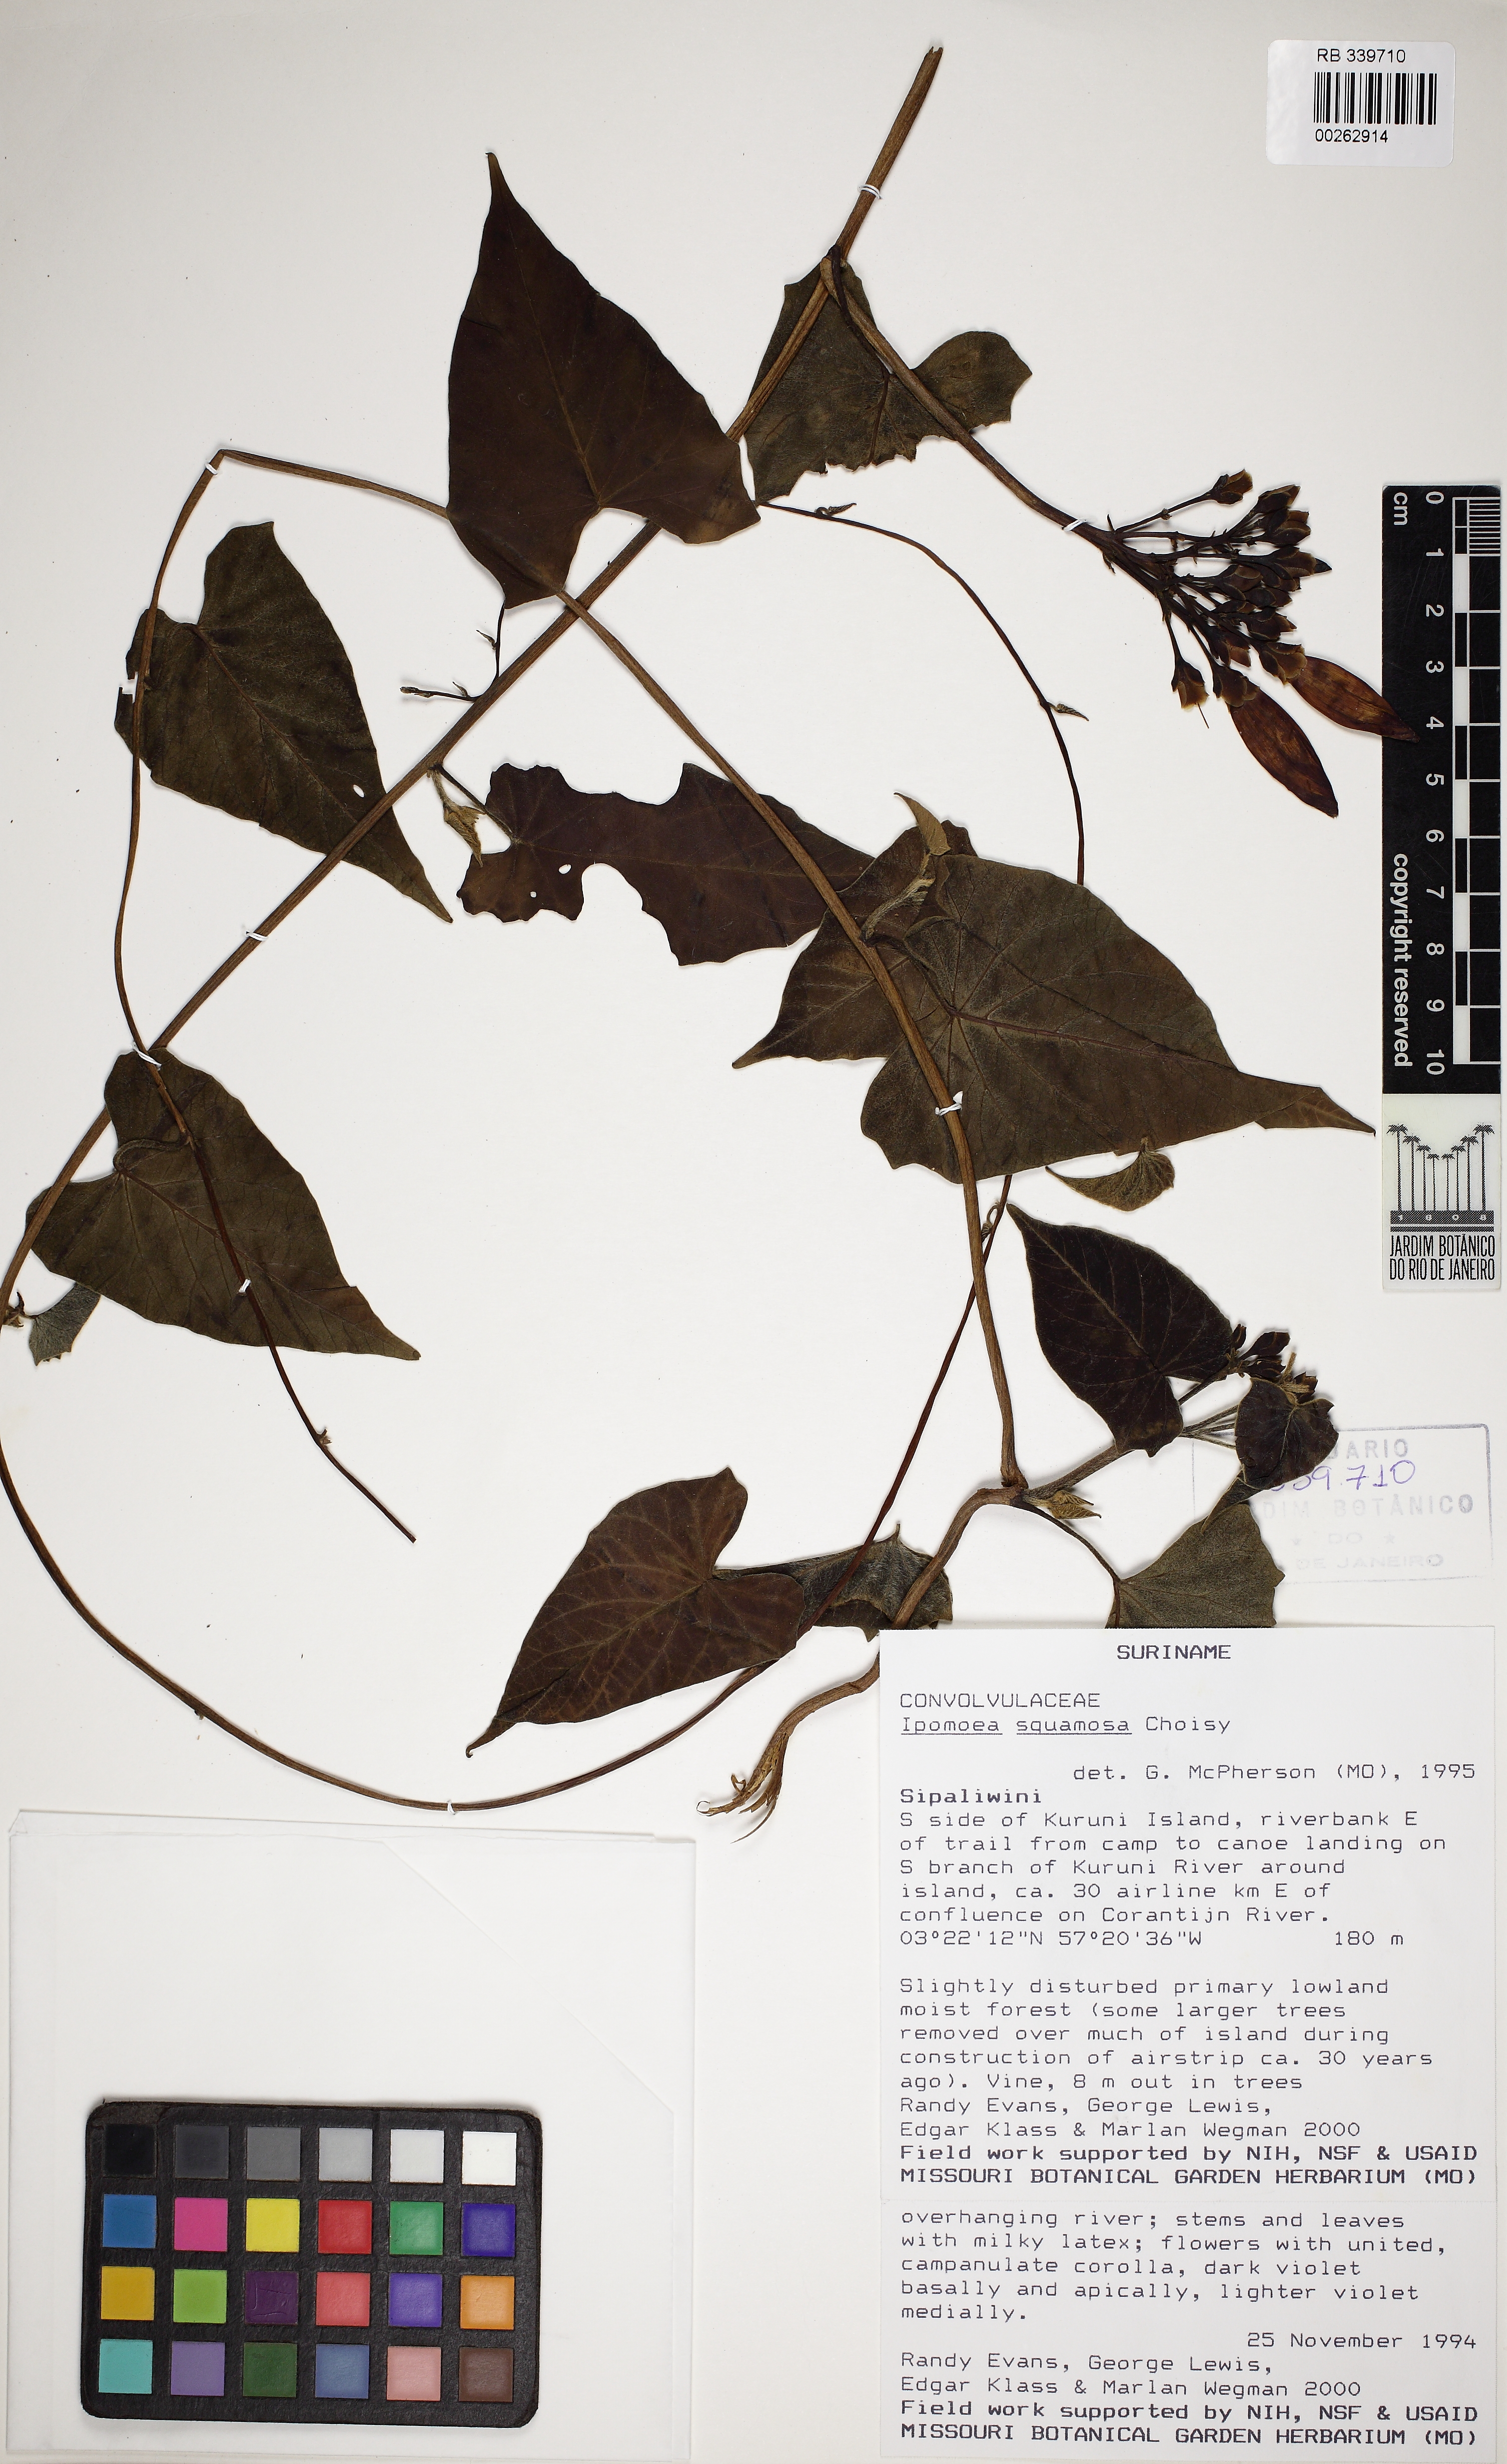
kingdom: Plantae
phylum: Tracheophyta
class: Magnoliopsida
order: Solanales
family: Convolvulaceae
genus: Ipomoea
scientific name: Ipomoea squamosa
